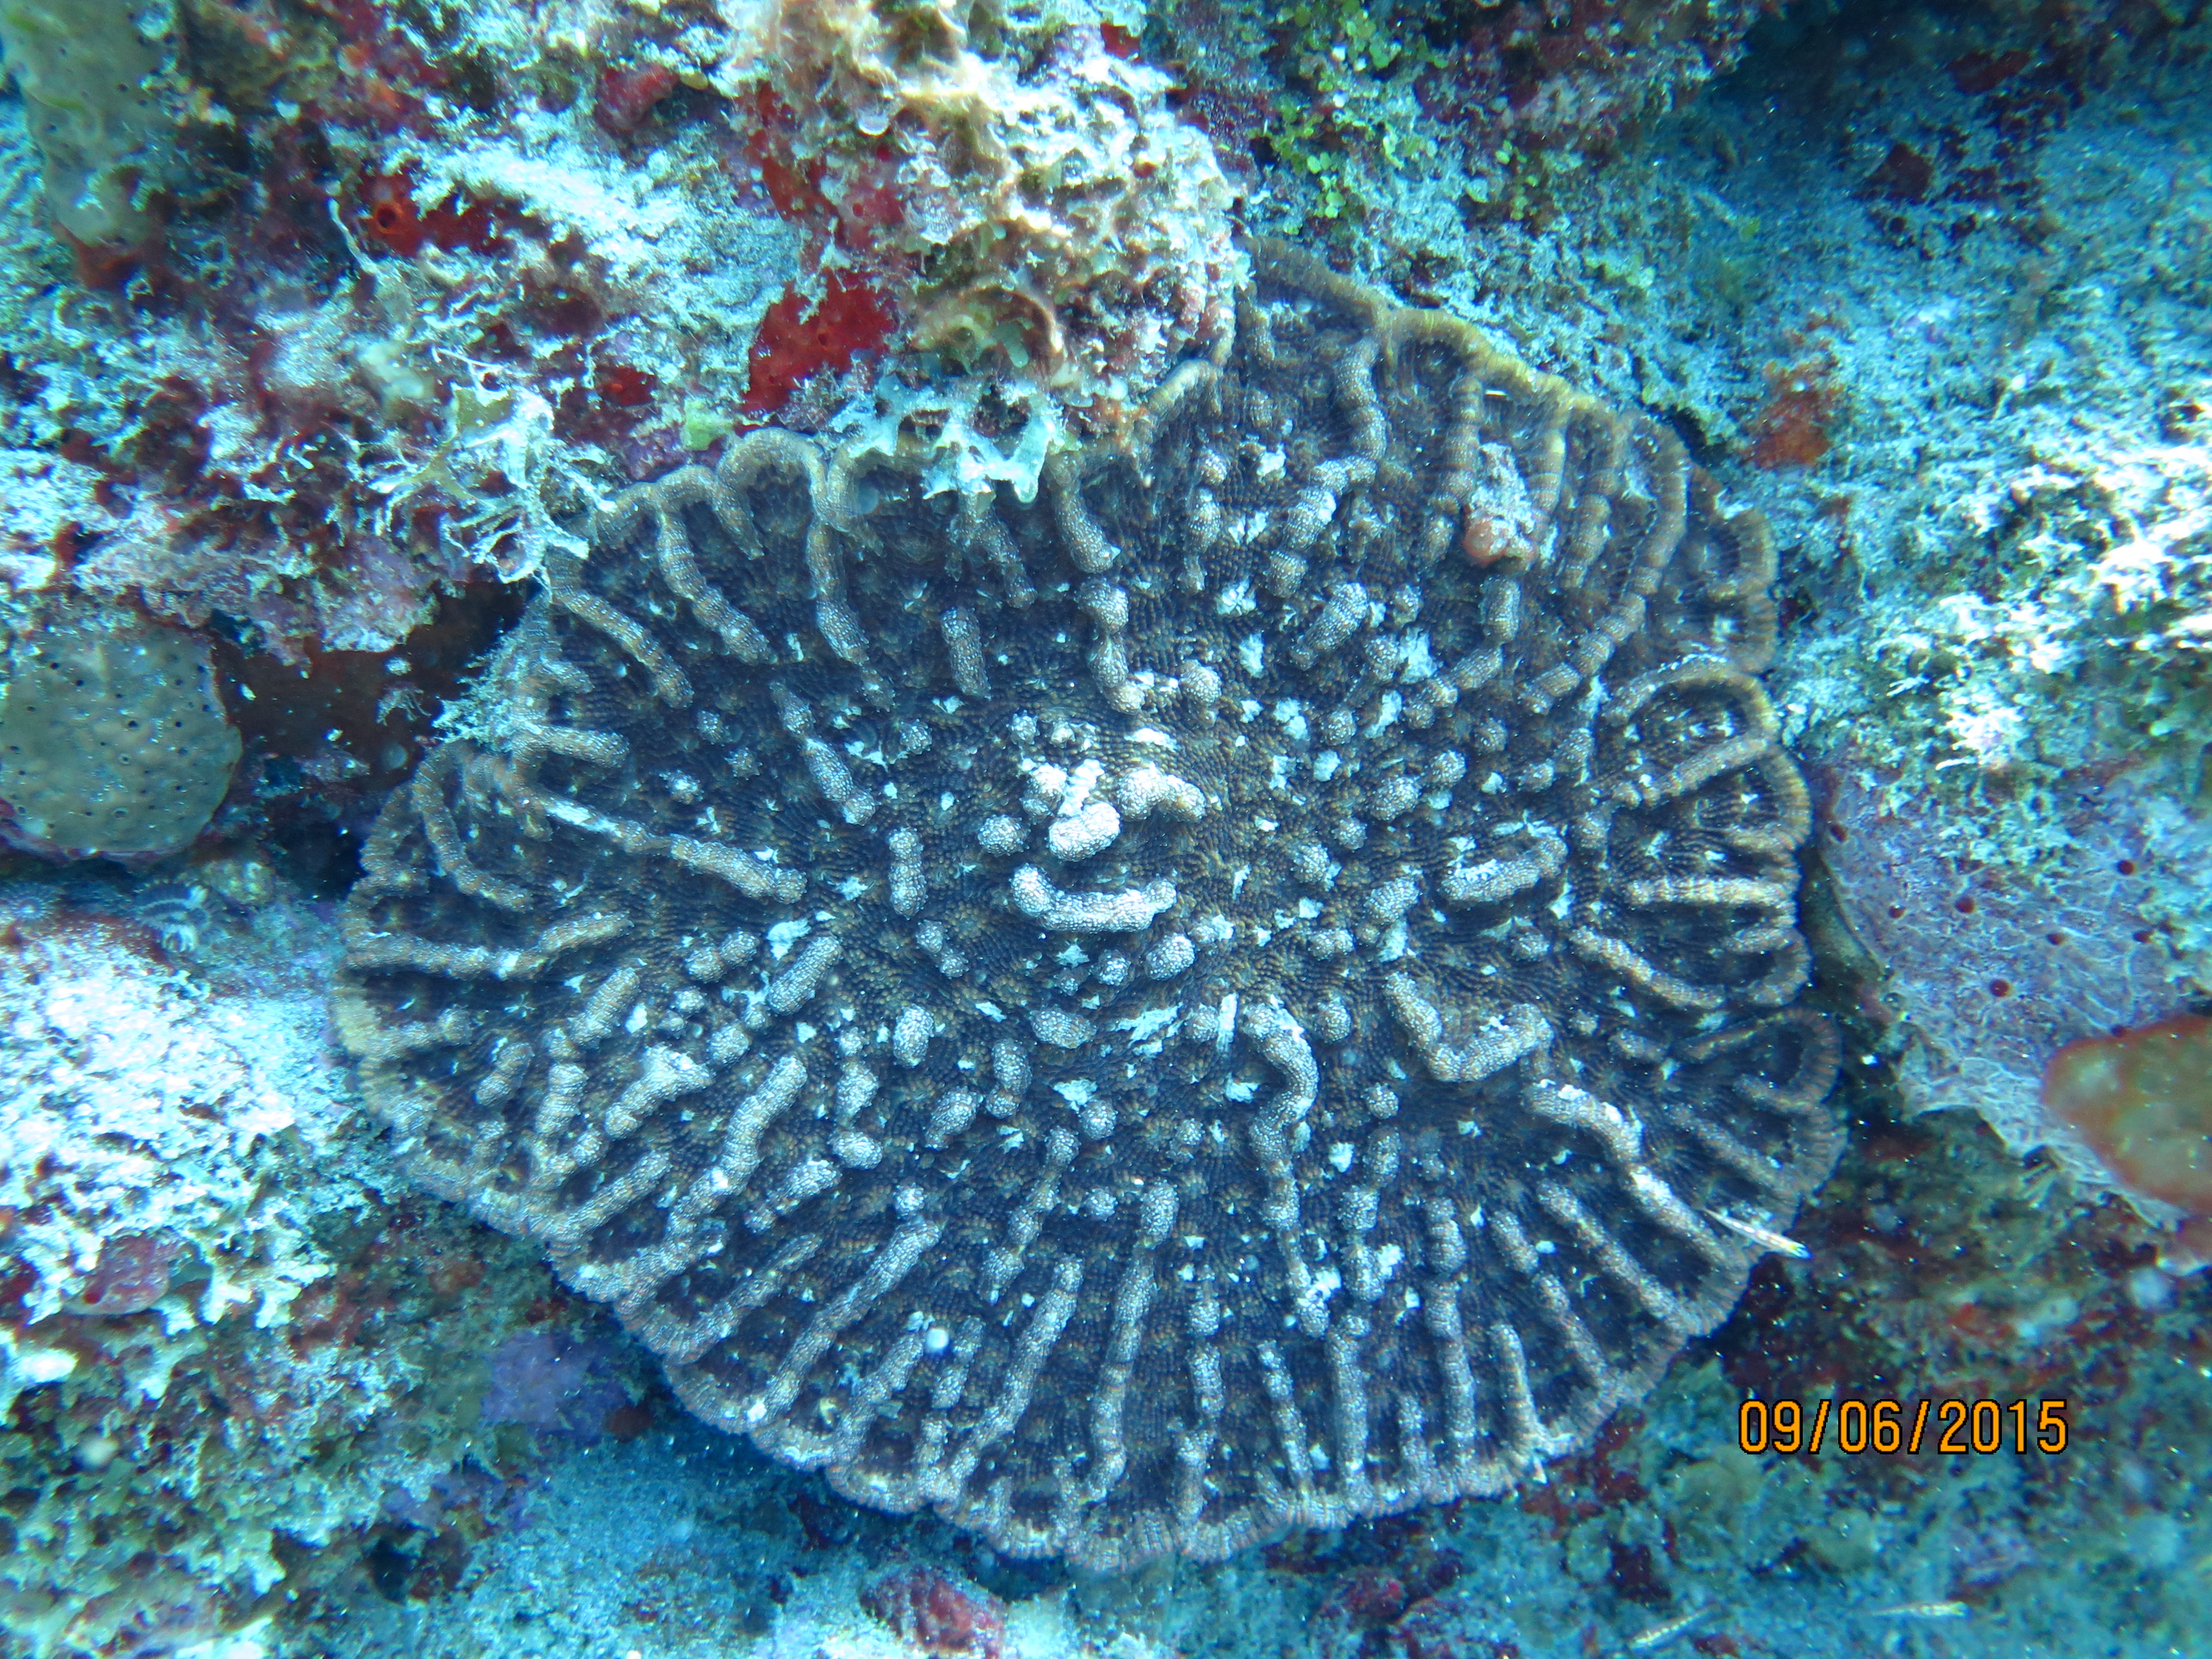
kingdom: Animalia
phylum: Cnidaria
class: Anthozoa
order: Scleractinia
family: Faviidae
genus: Mycetophyllia
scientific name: Mycetophyllia ferox
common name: Rough cactus coral
